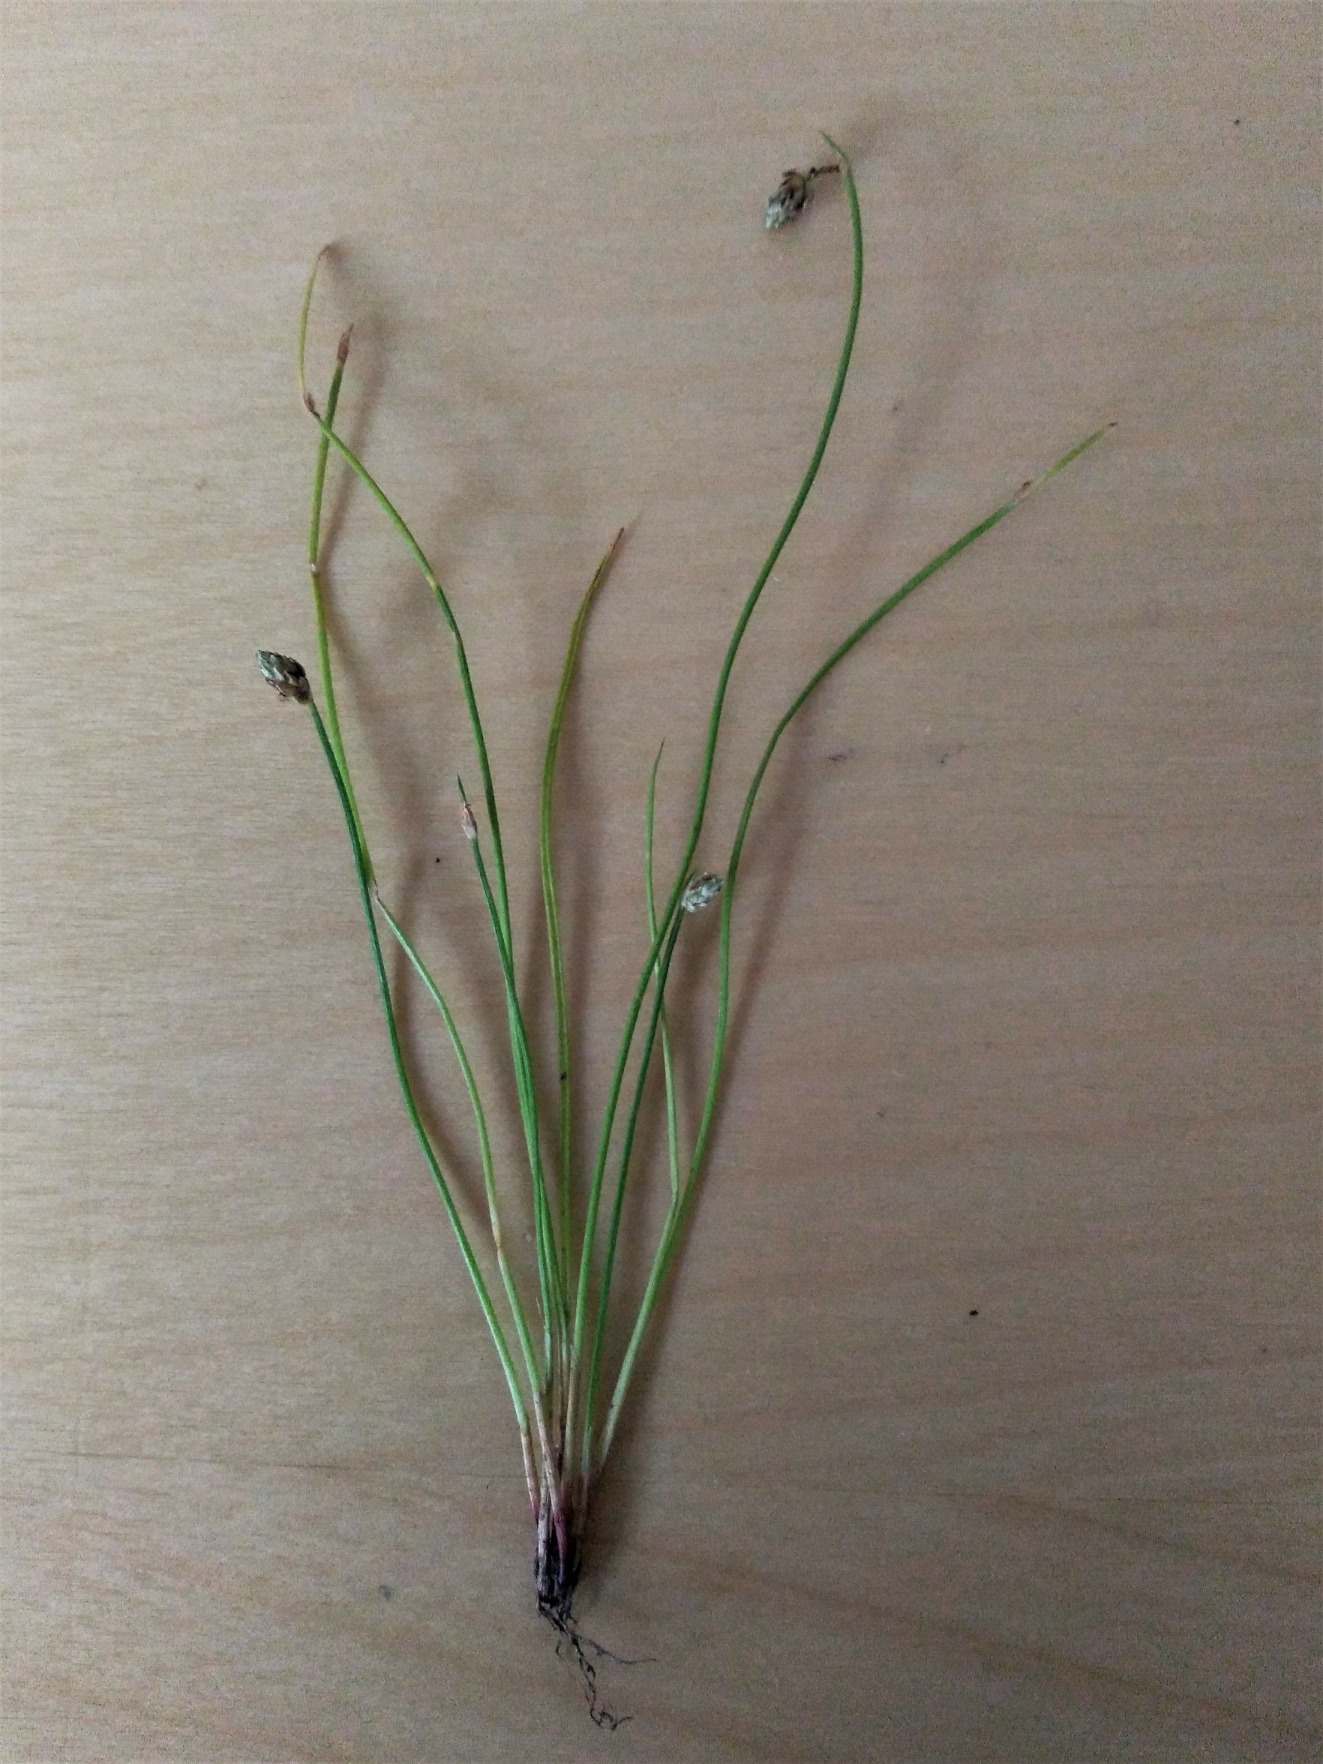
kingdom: Plantae
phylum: Tracheophyta
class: Liliopsida
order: Poales
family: Cyperaceae
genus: Isolepis
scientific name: Isolepis setacea
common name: Børste-kogleaks
